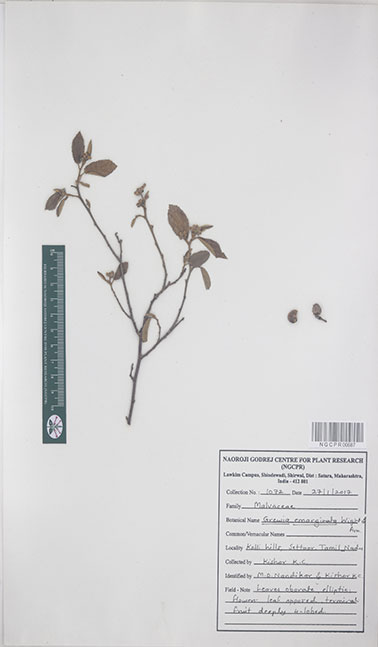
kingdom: Plantae
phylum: Tracheophyta
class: Magnoliopsida
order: Malvales
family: Malvaceae
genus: Grewia
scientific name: Grewia oppositifolia
